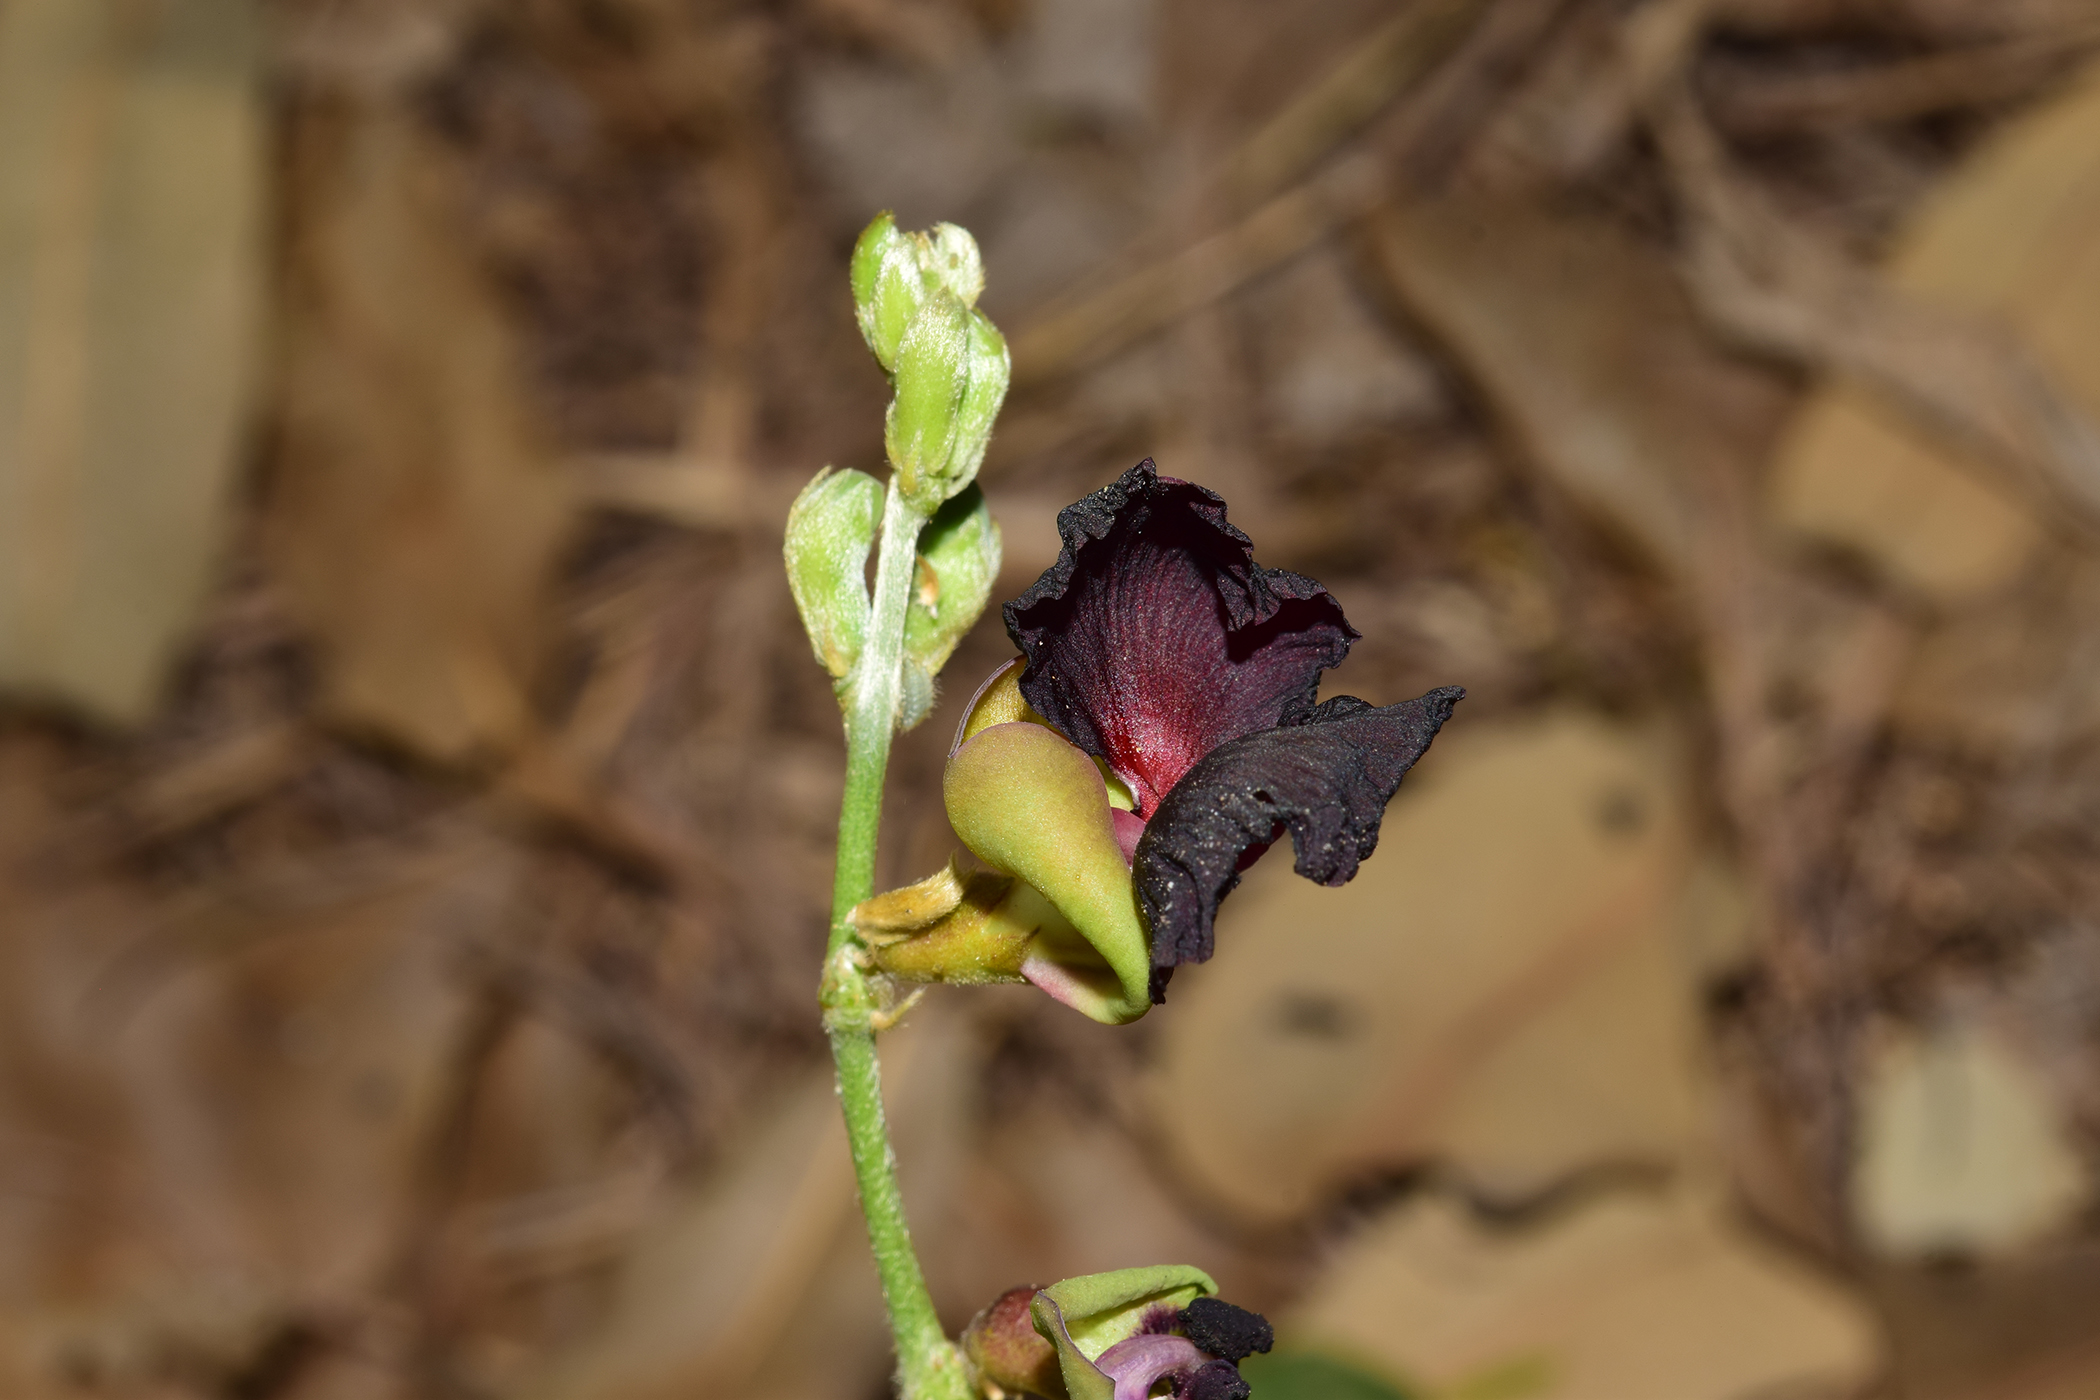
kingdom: Plantae
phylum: Tracheophyta
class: Magnoliopsida
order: Fabales
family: Fabaceae
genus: Macroptilium
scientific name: Macroptilium atropurpureum
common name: Purple bushbean
